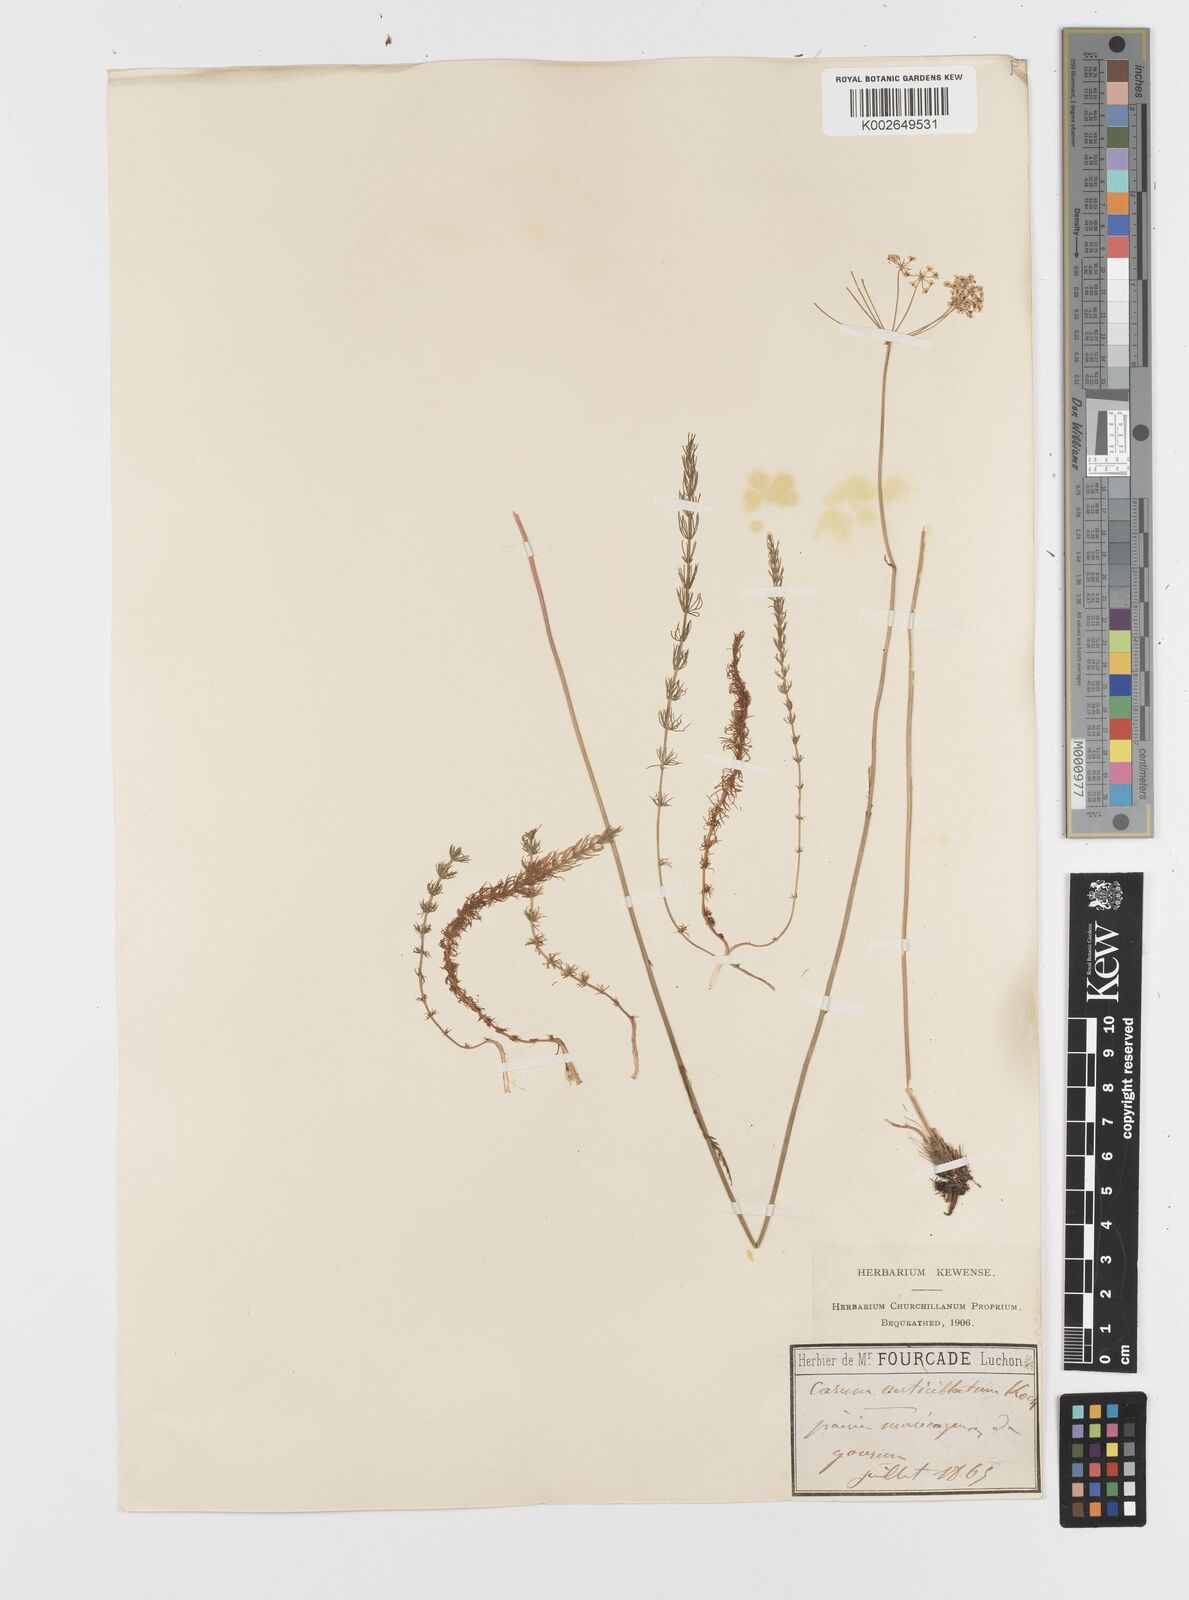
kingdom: Plantae
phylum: Tracheophyta
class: Magnoliopsida
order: Apiales
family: Apiaceae
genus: Trocdaris
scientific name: Trocdaris verticillatum
